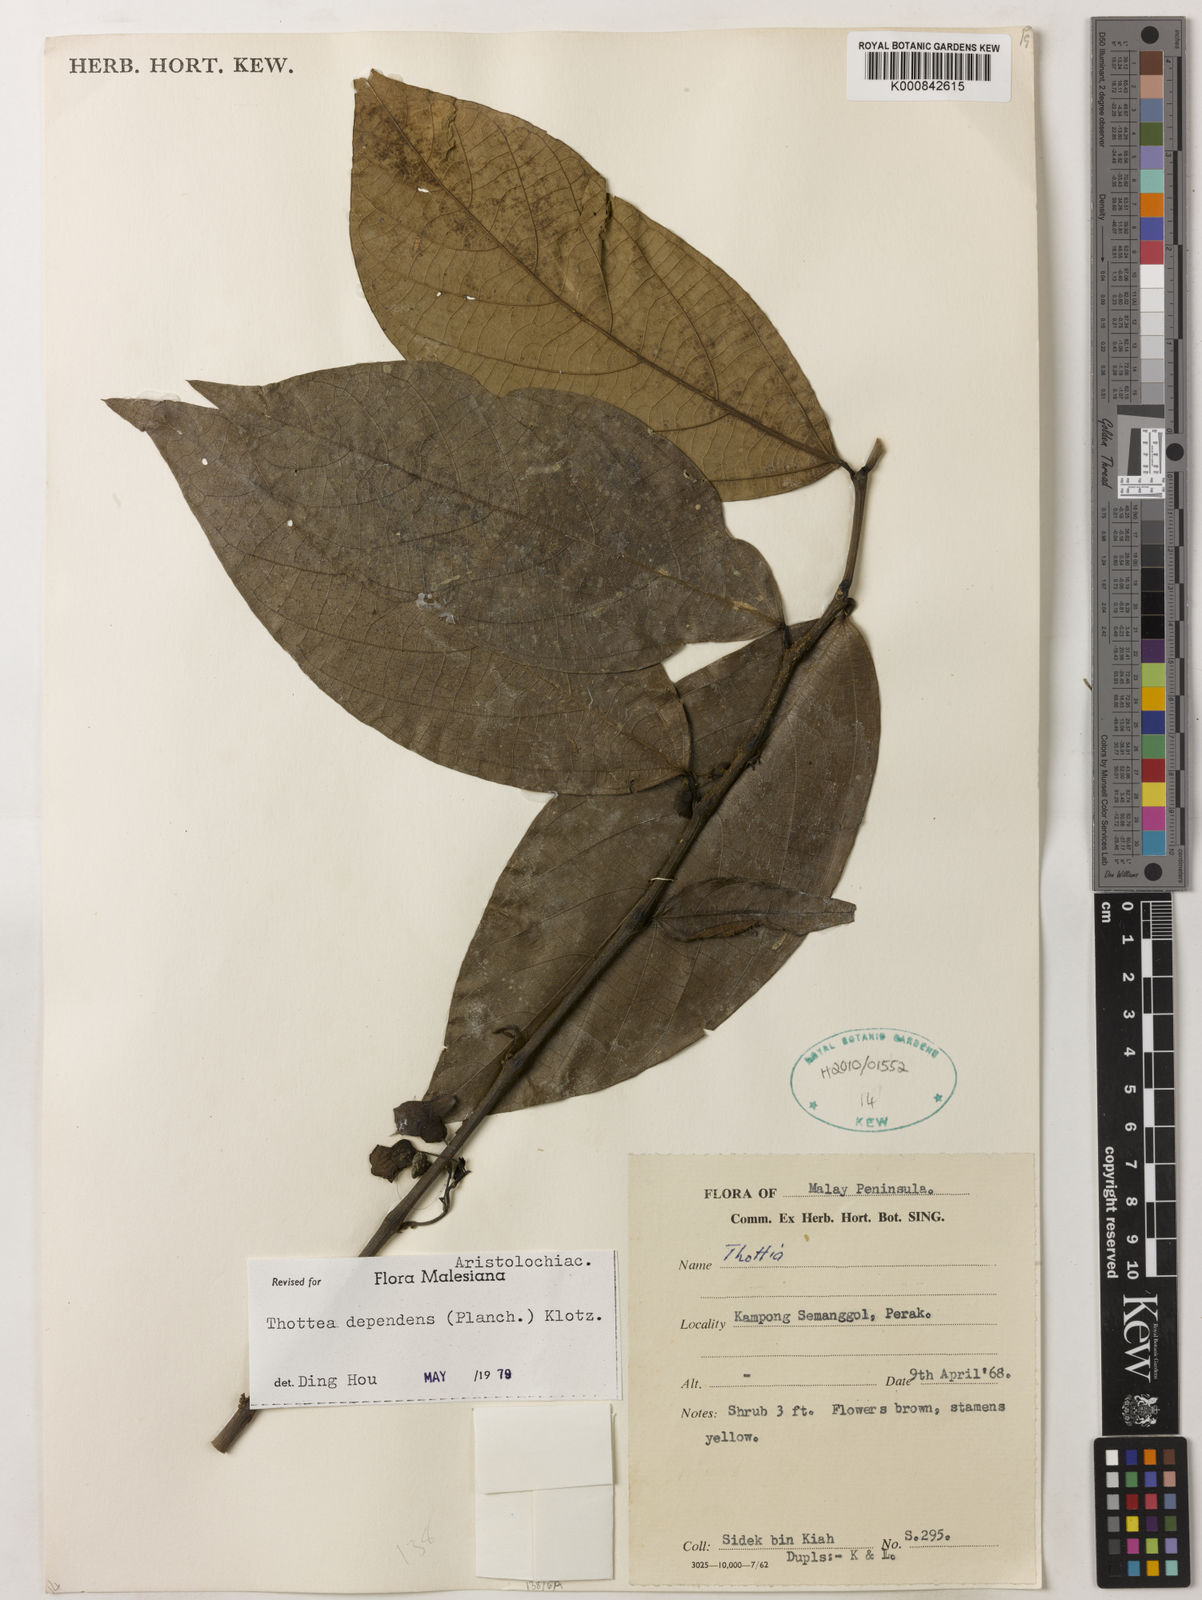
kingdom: Plantae
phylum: Tracheophyta
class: Magnoliopsida
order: Piperales
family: Aristolochiaceae
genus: Thottea
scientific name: Thottea dependens
